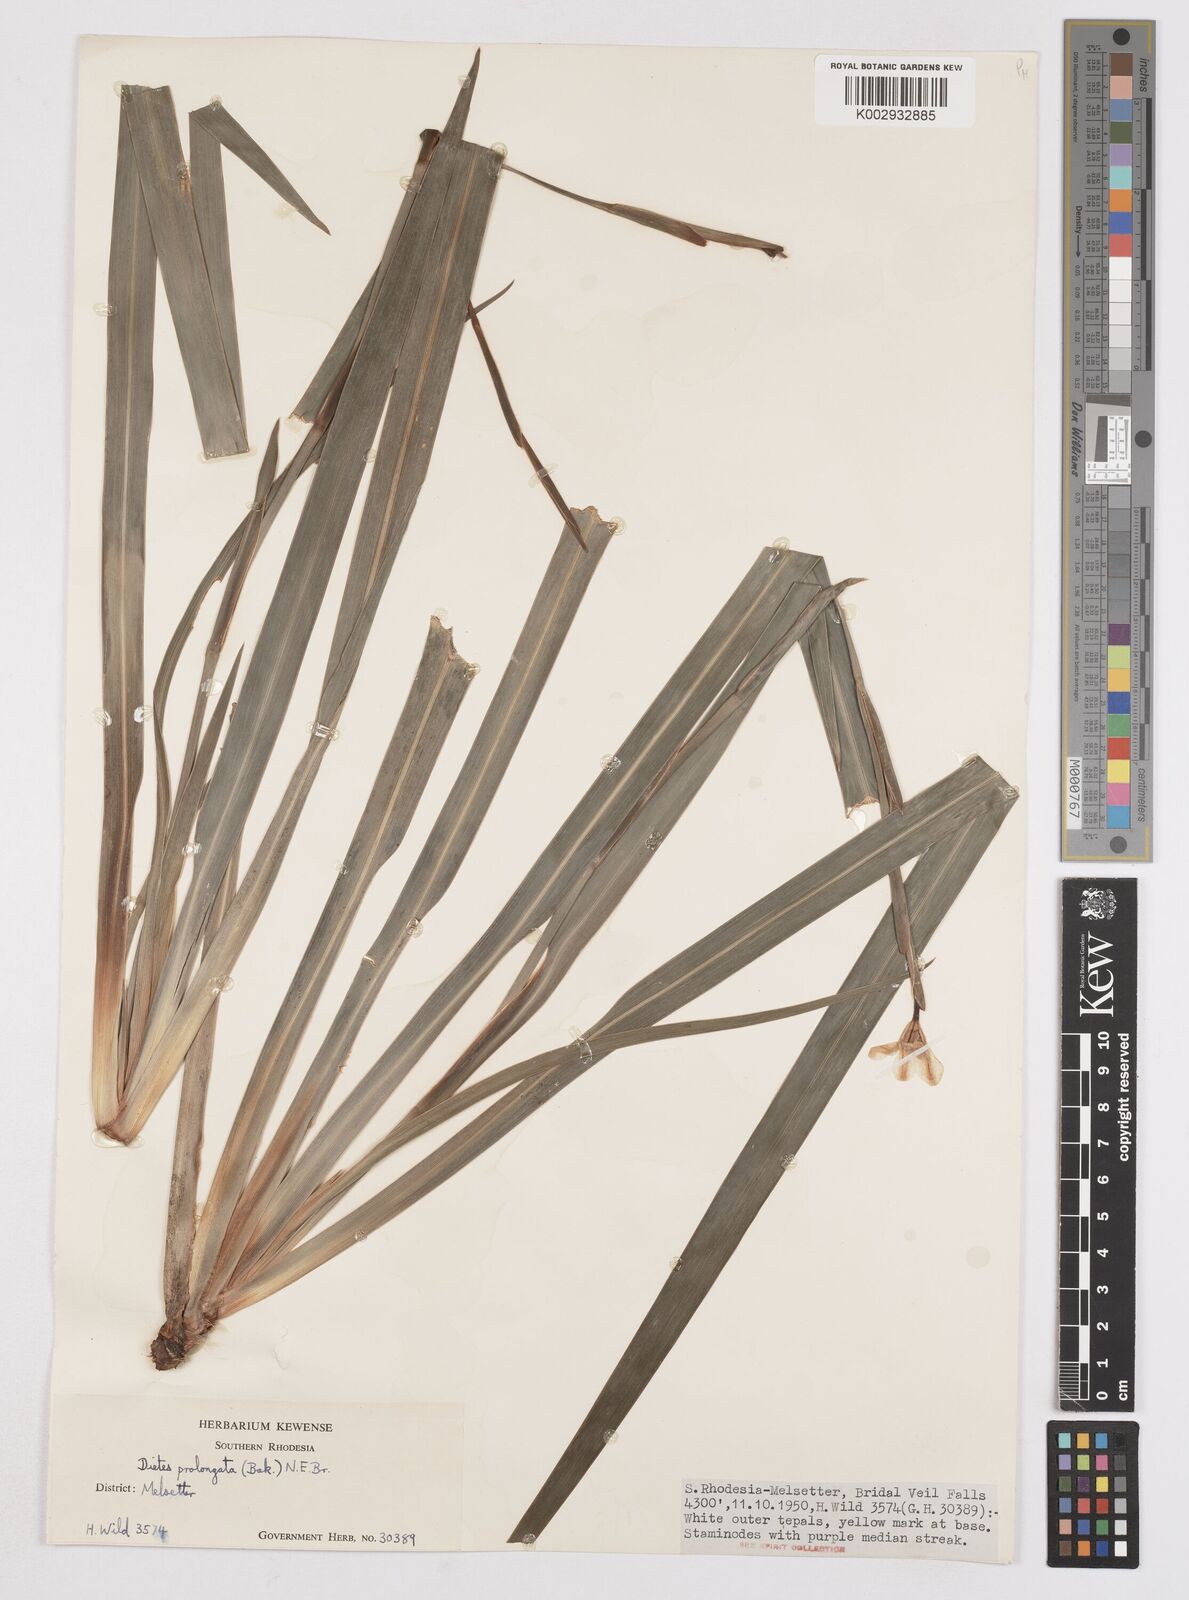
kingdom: Plantae
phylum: Tracheophyta
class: Liliopsida
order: Asparagales
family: Iridaceae
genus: Dietes
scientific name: Dietes iridioides
